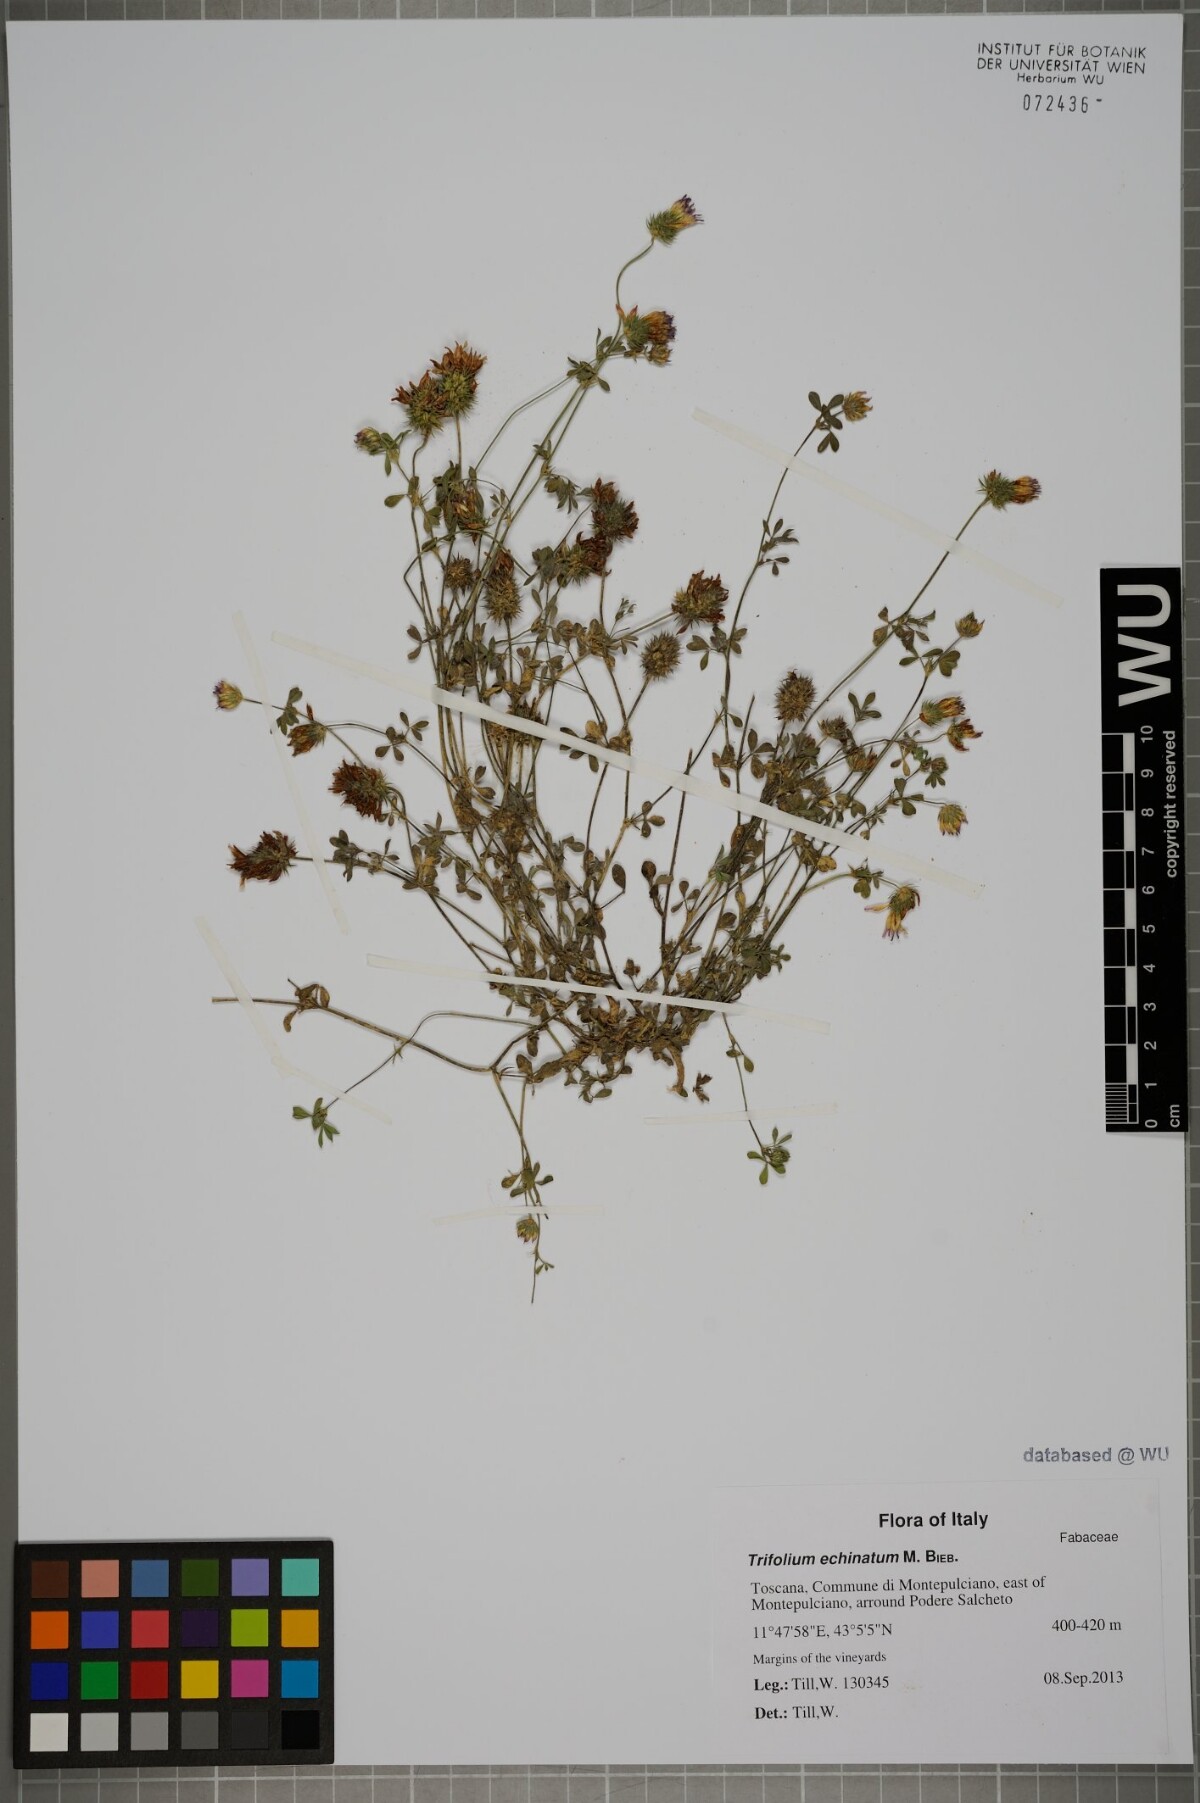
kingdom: Plantae
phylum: Tracheophyta
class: Magnoliopsida
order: Fabales
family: Fabaceae
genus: Trifolium
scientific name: Trifolium echinatum
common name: Hedgehog clover
